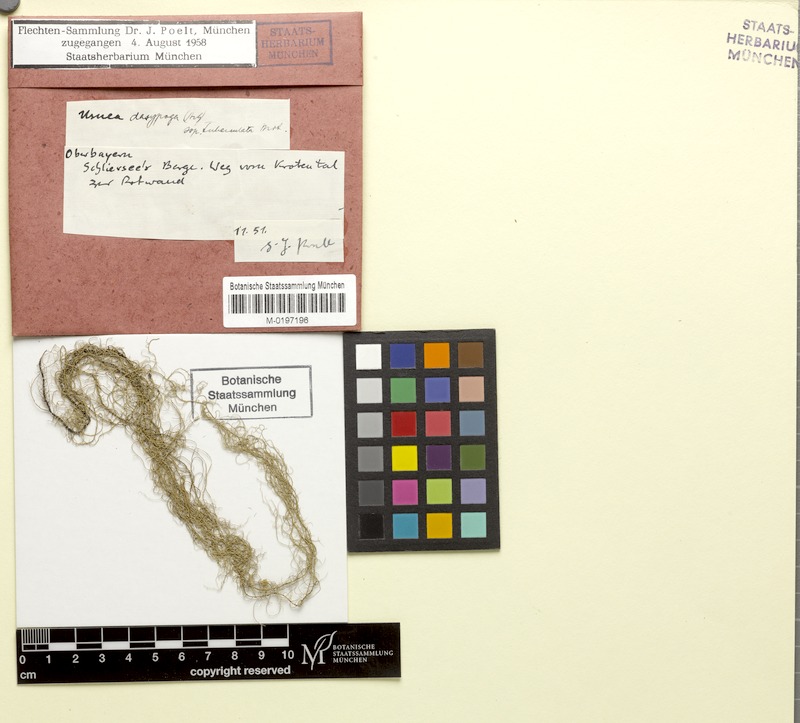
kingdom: Fungi
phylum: Ascomycota
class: Lecanoromycetes
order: Lecanorales
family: Parmeliaceae
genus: Usnea
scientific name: Usnea dasopoga
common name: Fishbone beard lichen
